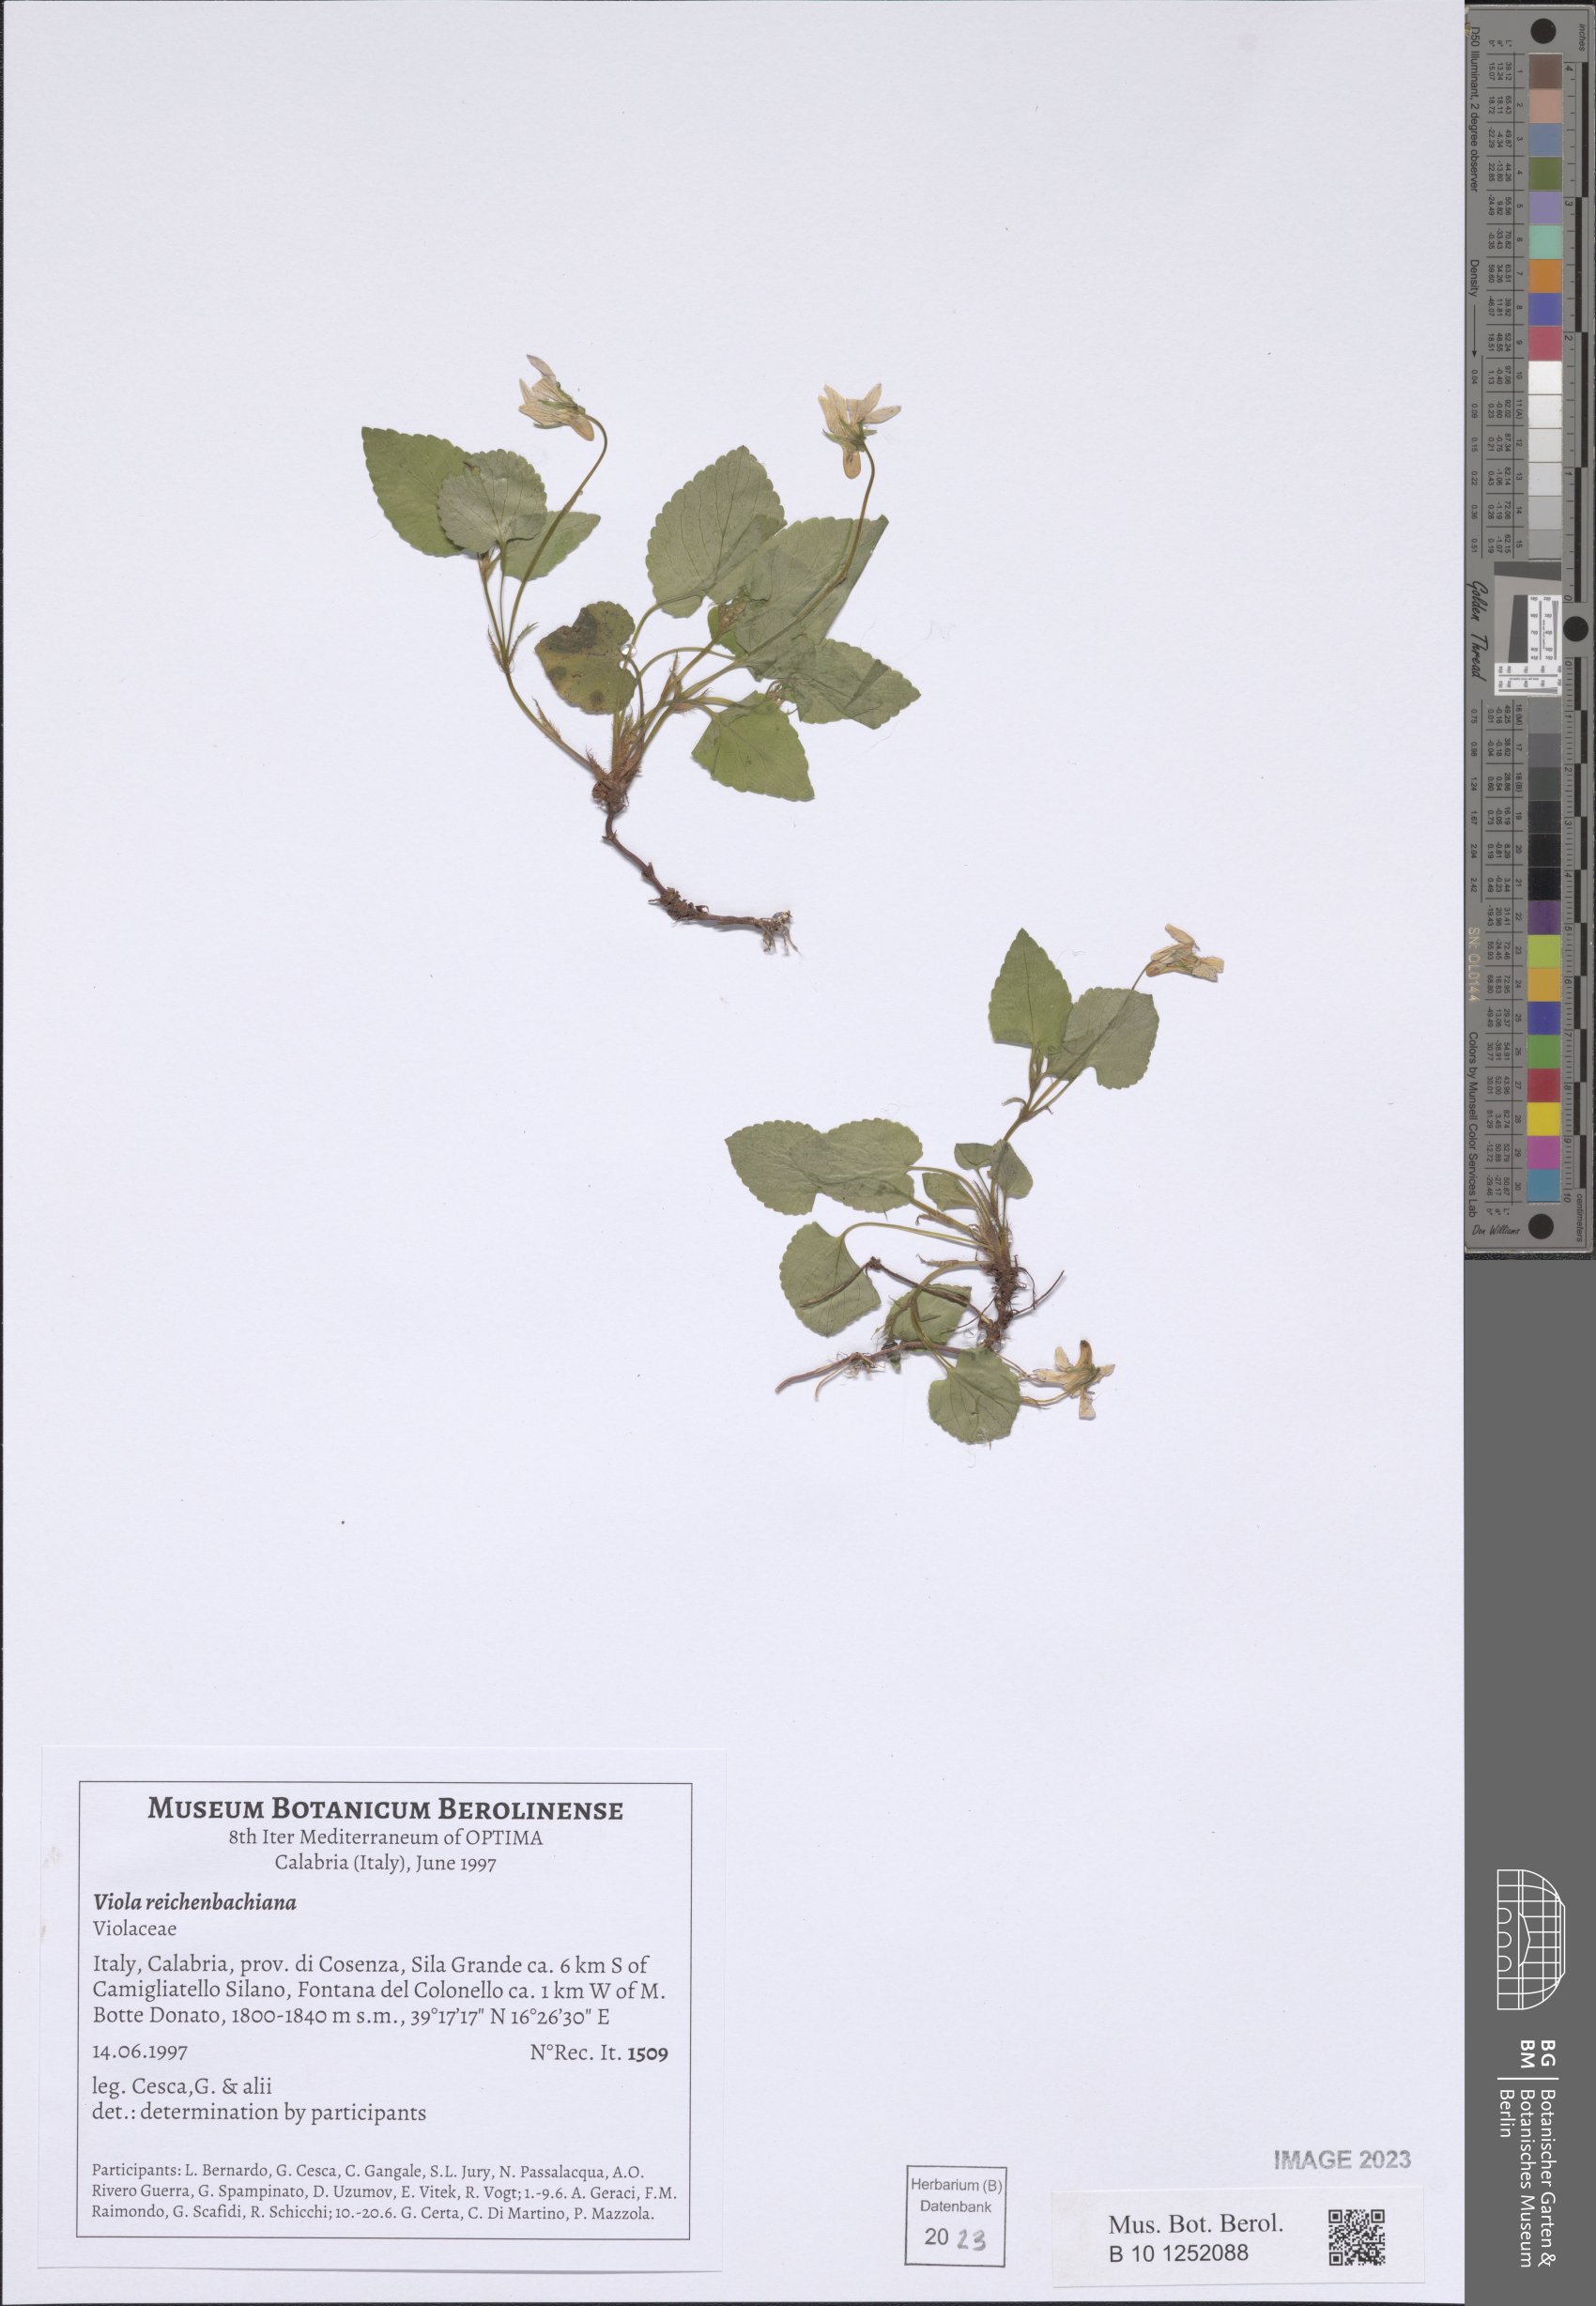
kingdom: Plantae
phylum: Tracheophyta
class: Magnoliopsida
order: Malpighiales
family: Violaceae
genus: Viola
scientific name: Viola reichenbachiana
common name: Early dog-violet
